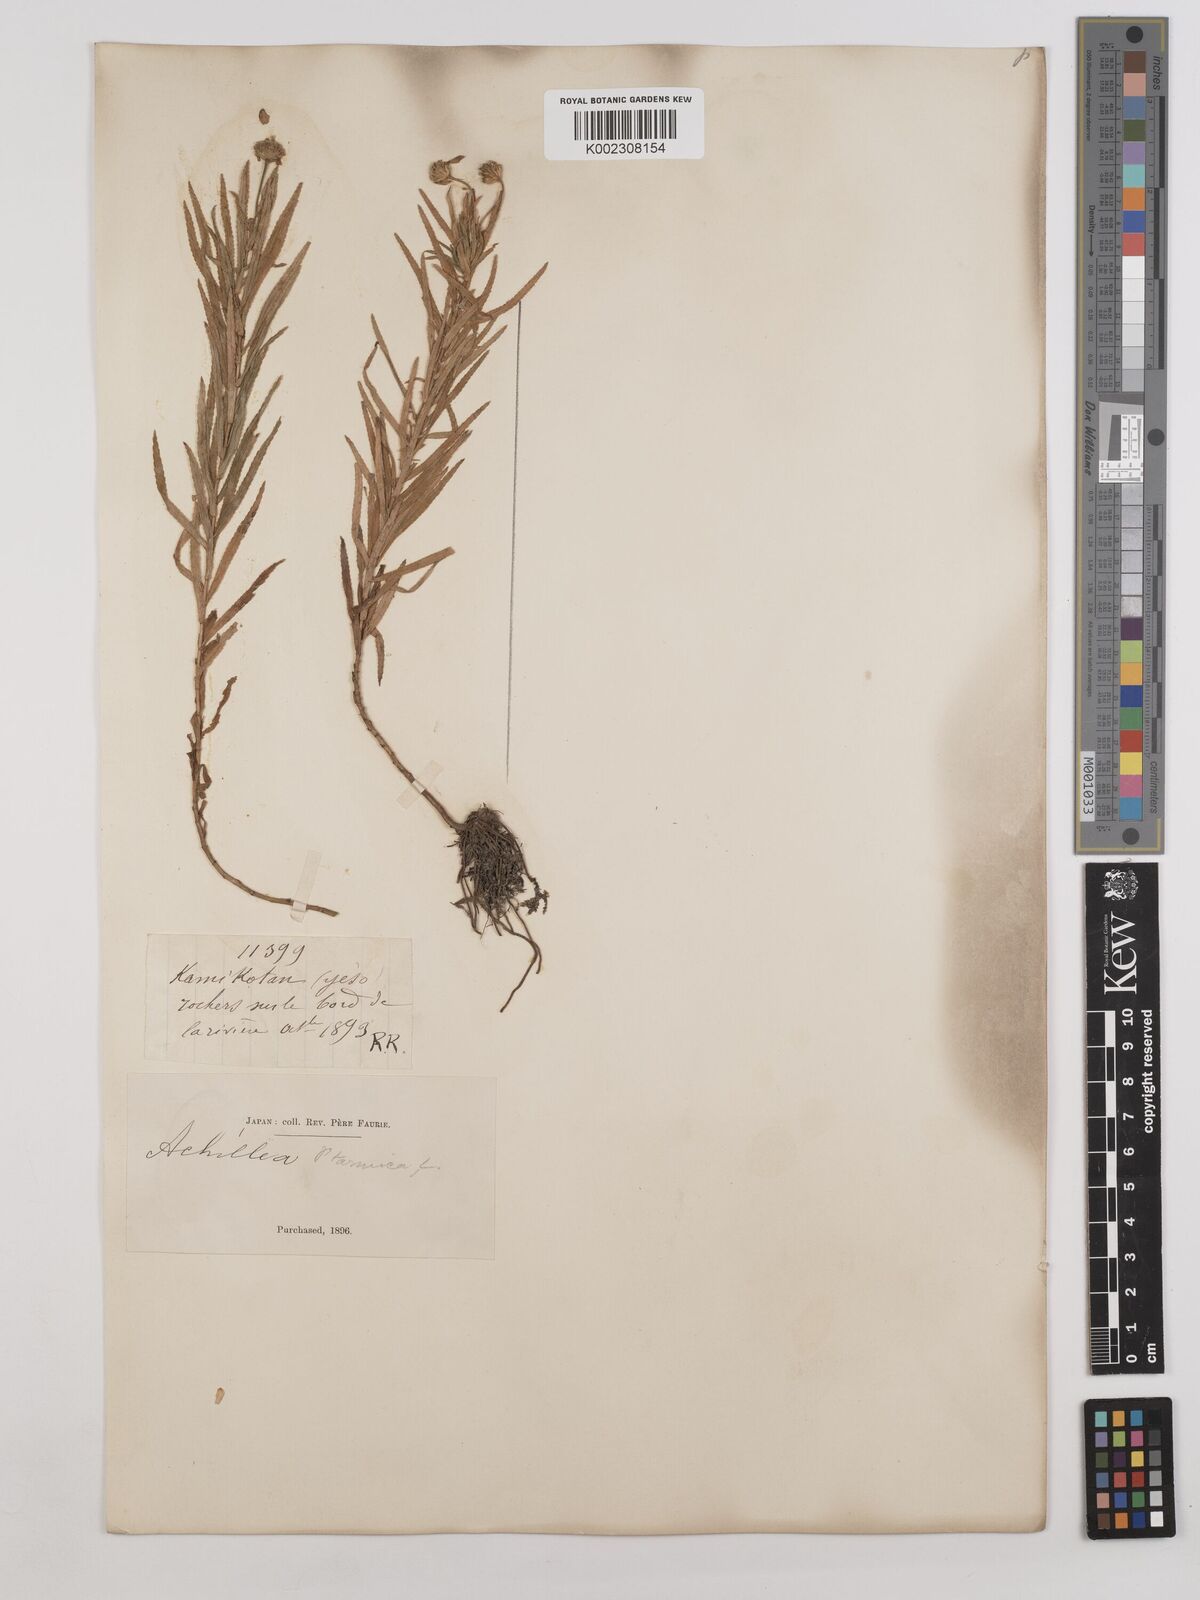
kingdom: Plantae
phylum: Tracheophyta
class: Magnoliopsida
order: Asterales
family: Asteraceae
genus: Achillea
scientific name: Achillea ptarmica
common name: Sneezeweed
